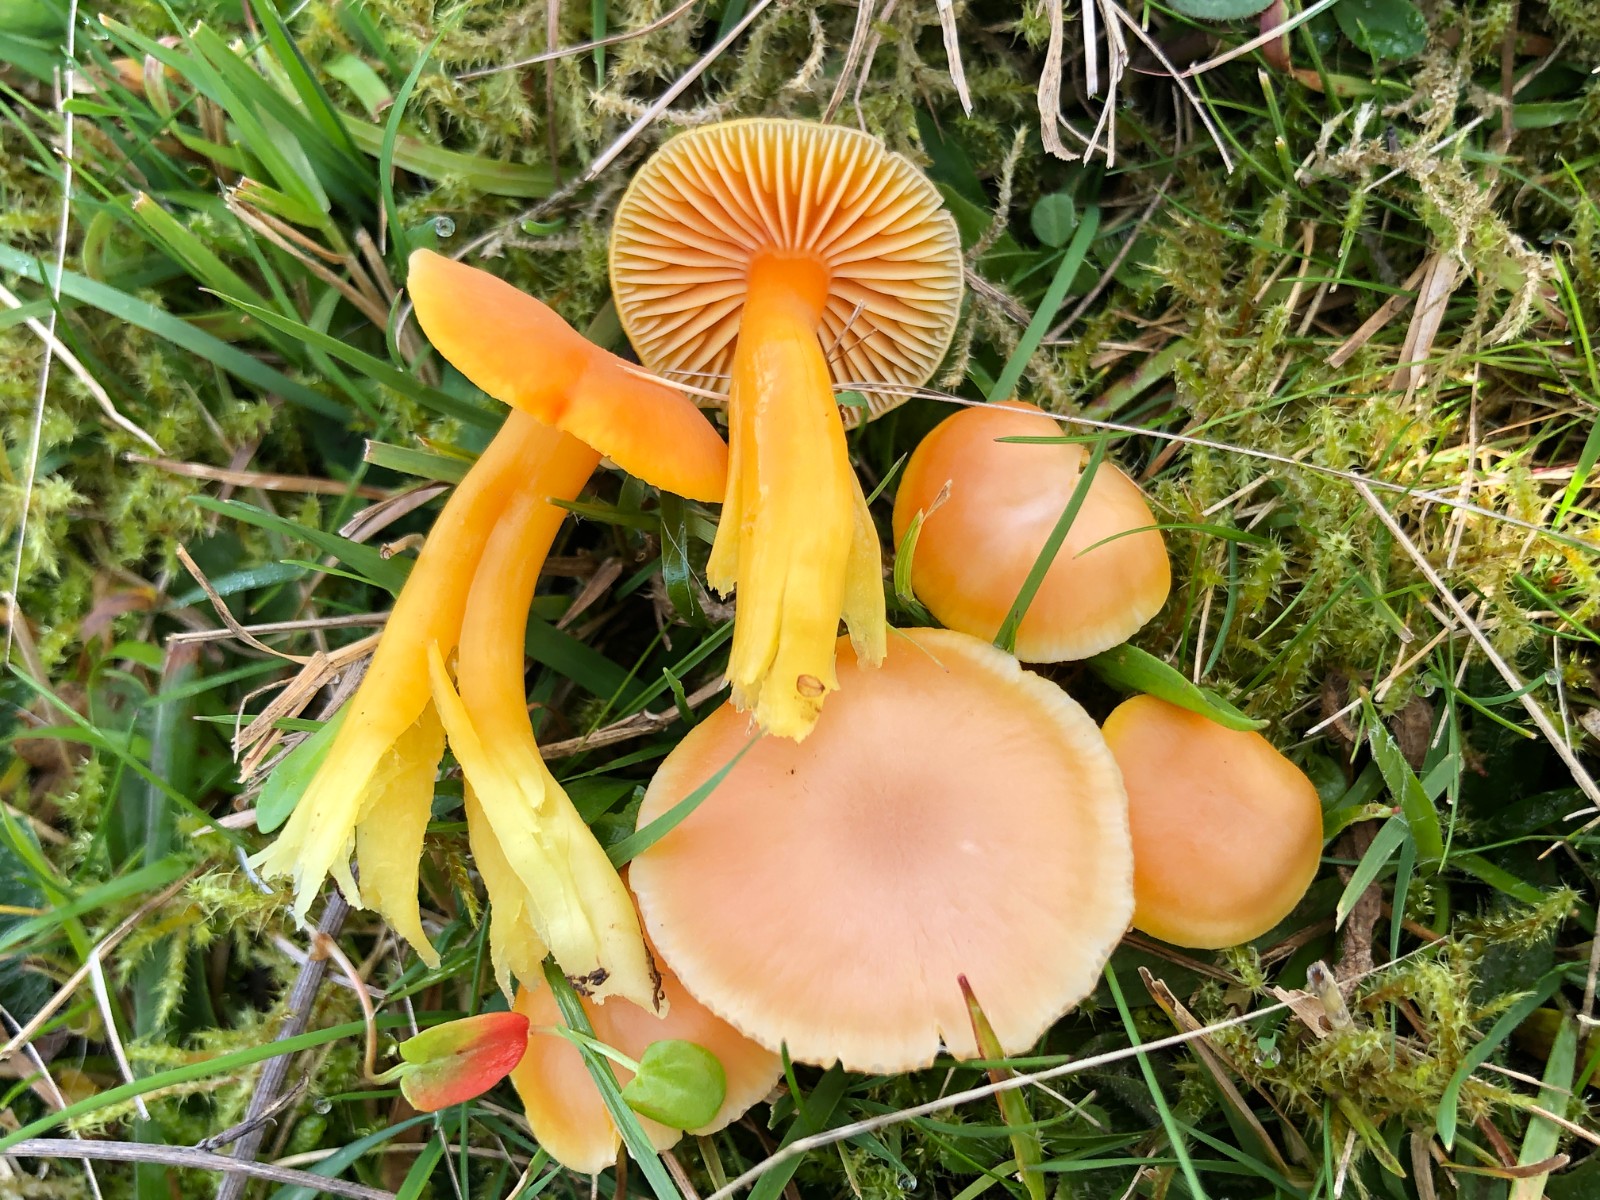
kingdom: Fungi
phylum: Basidiomycota
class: Agaricomycetes
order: Agaricales
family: Hygrophoraceae
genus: Hygrocybe
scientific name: Hygrocybe reidii
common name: honning-vokshat
